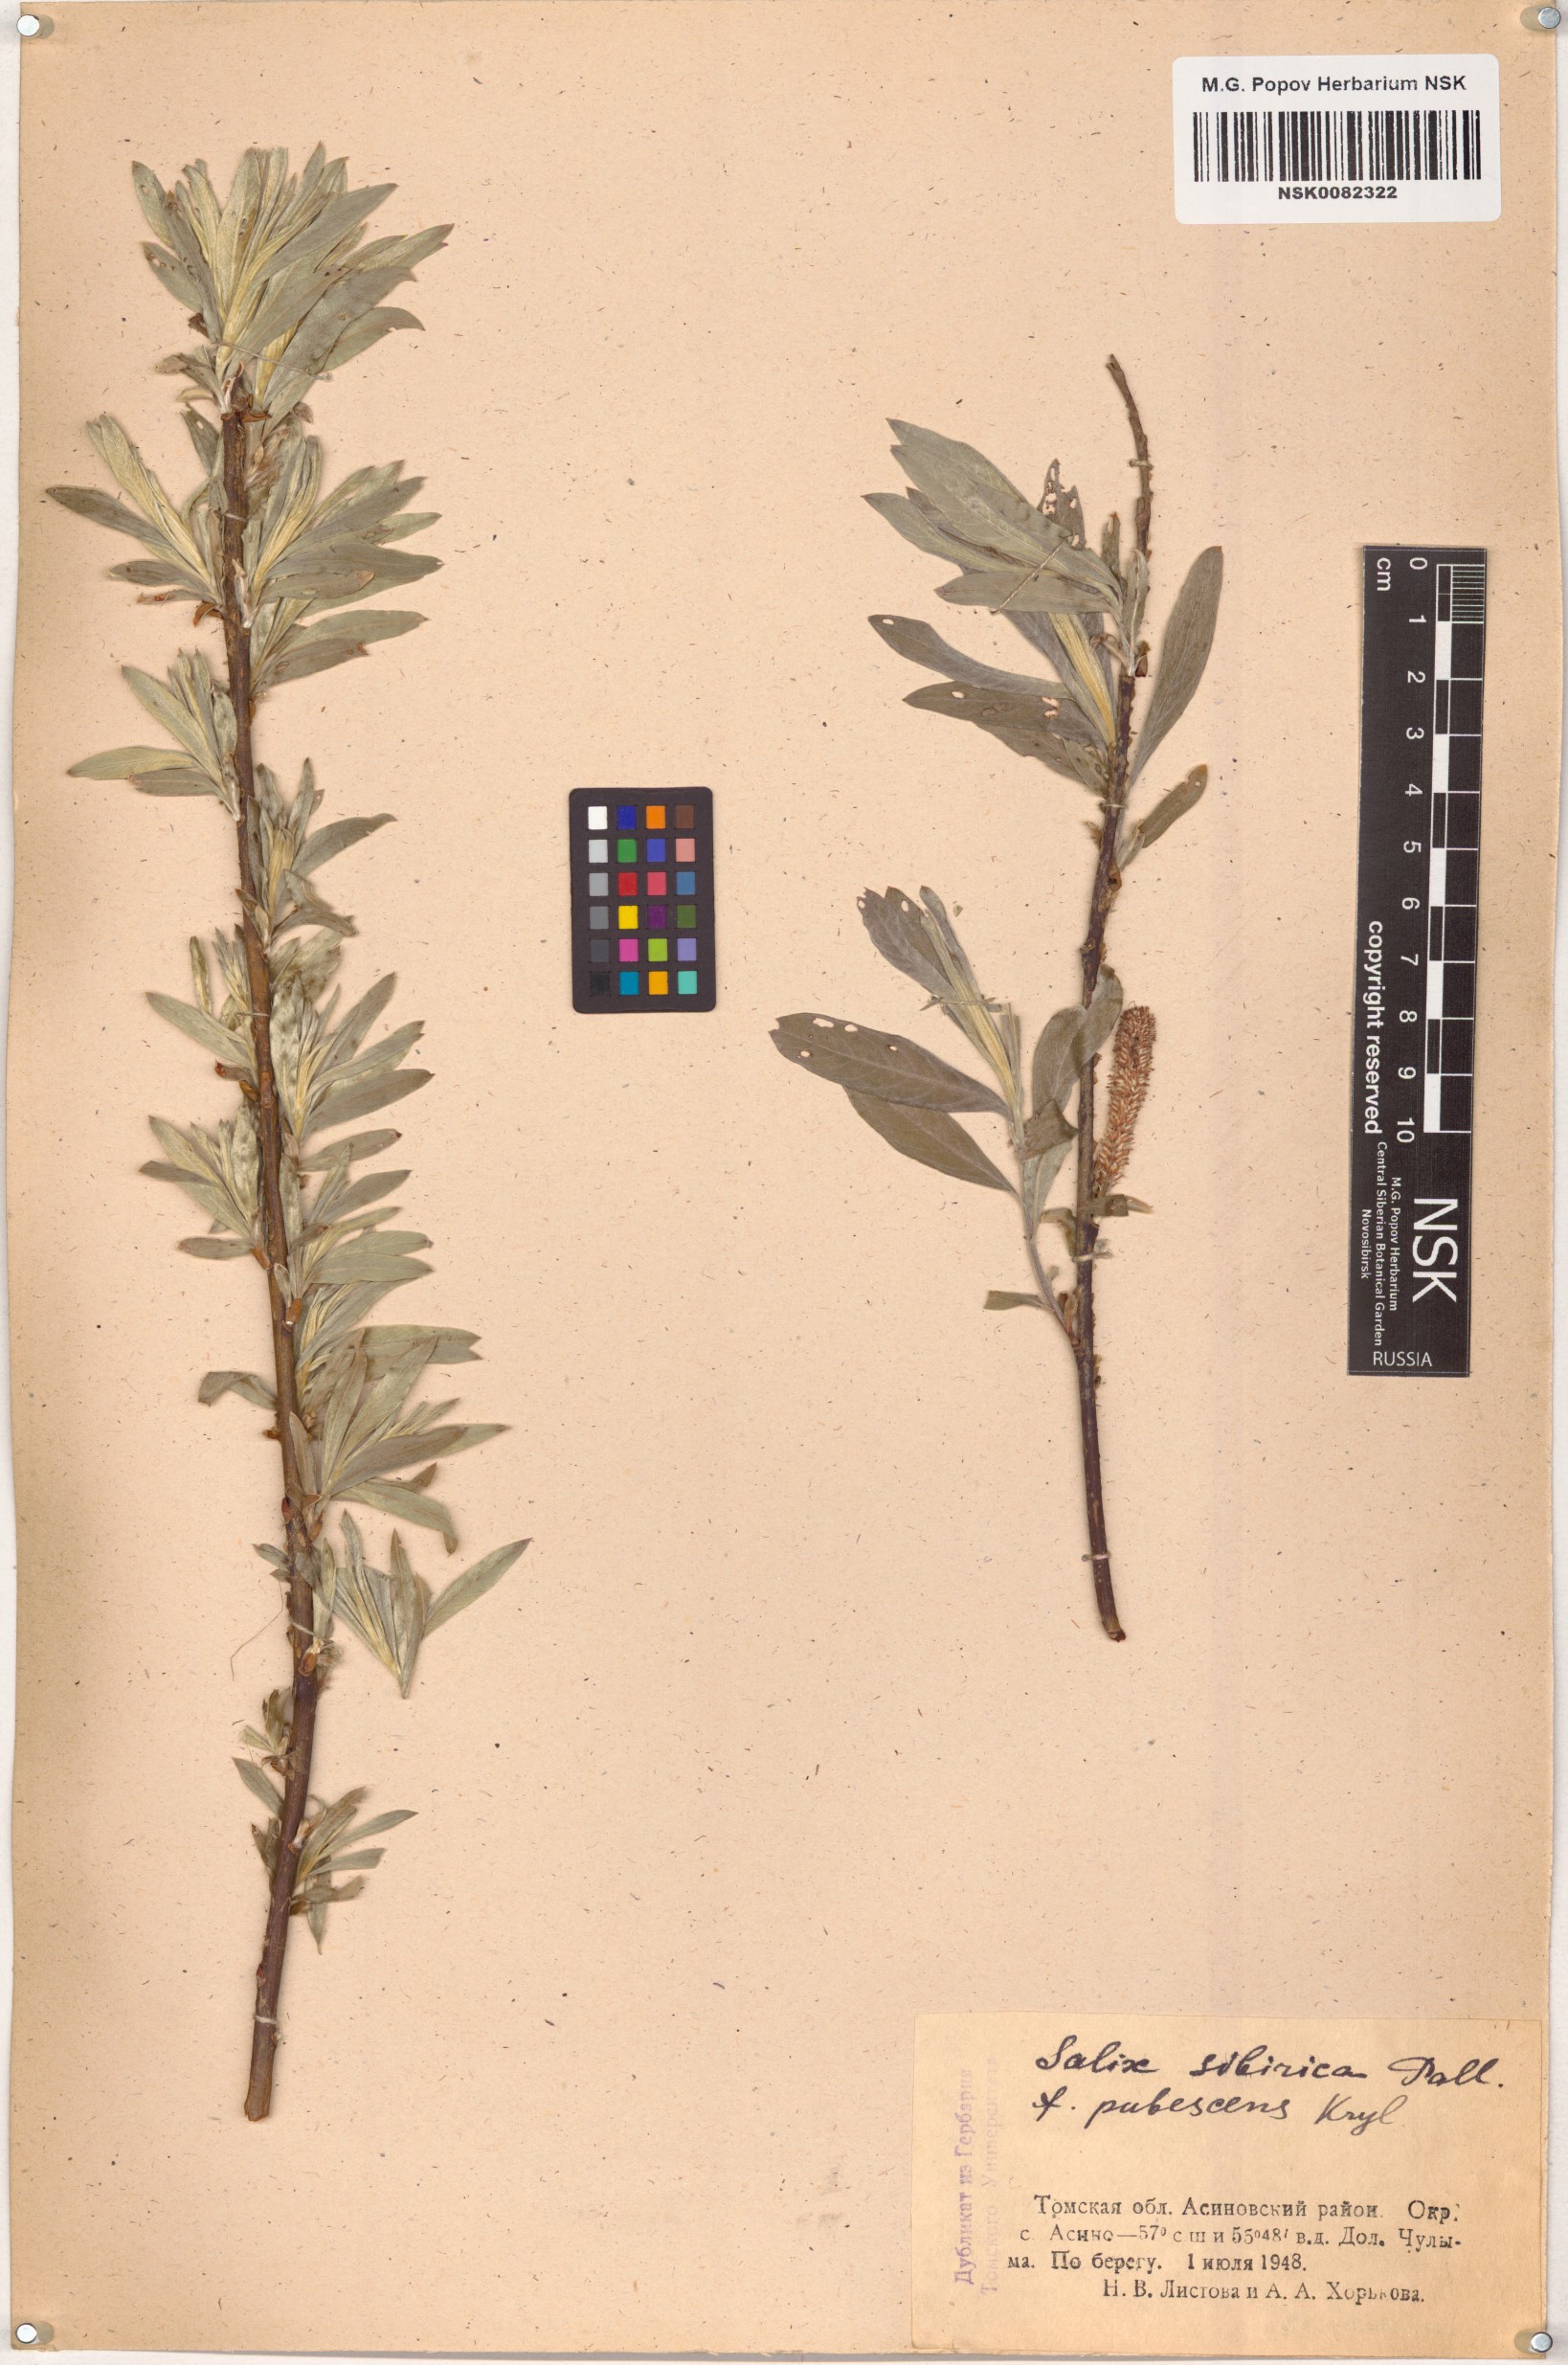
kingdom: Plantae
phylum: Tracheophyta
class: Magnoliopsida
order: Malpighiales
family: Salicaceae
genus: Salix
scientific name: Salix rosmarinifolia
